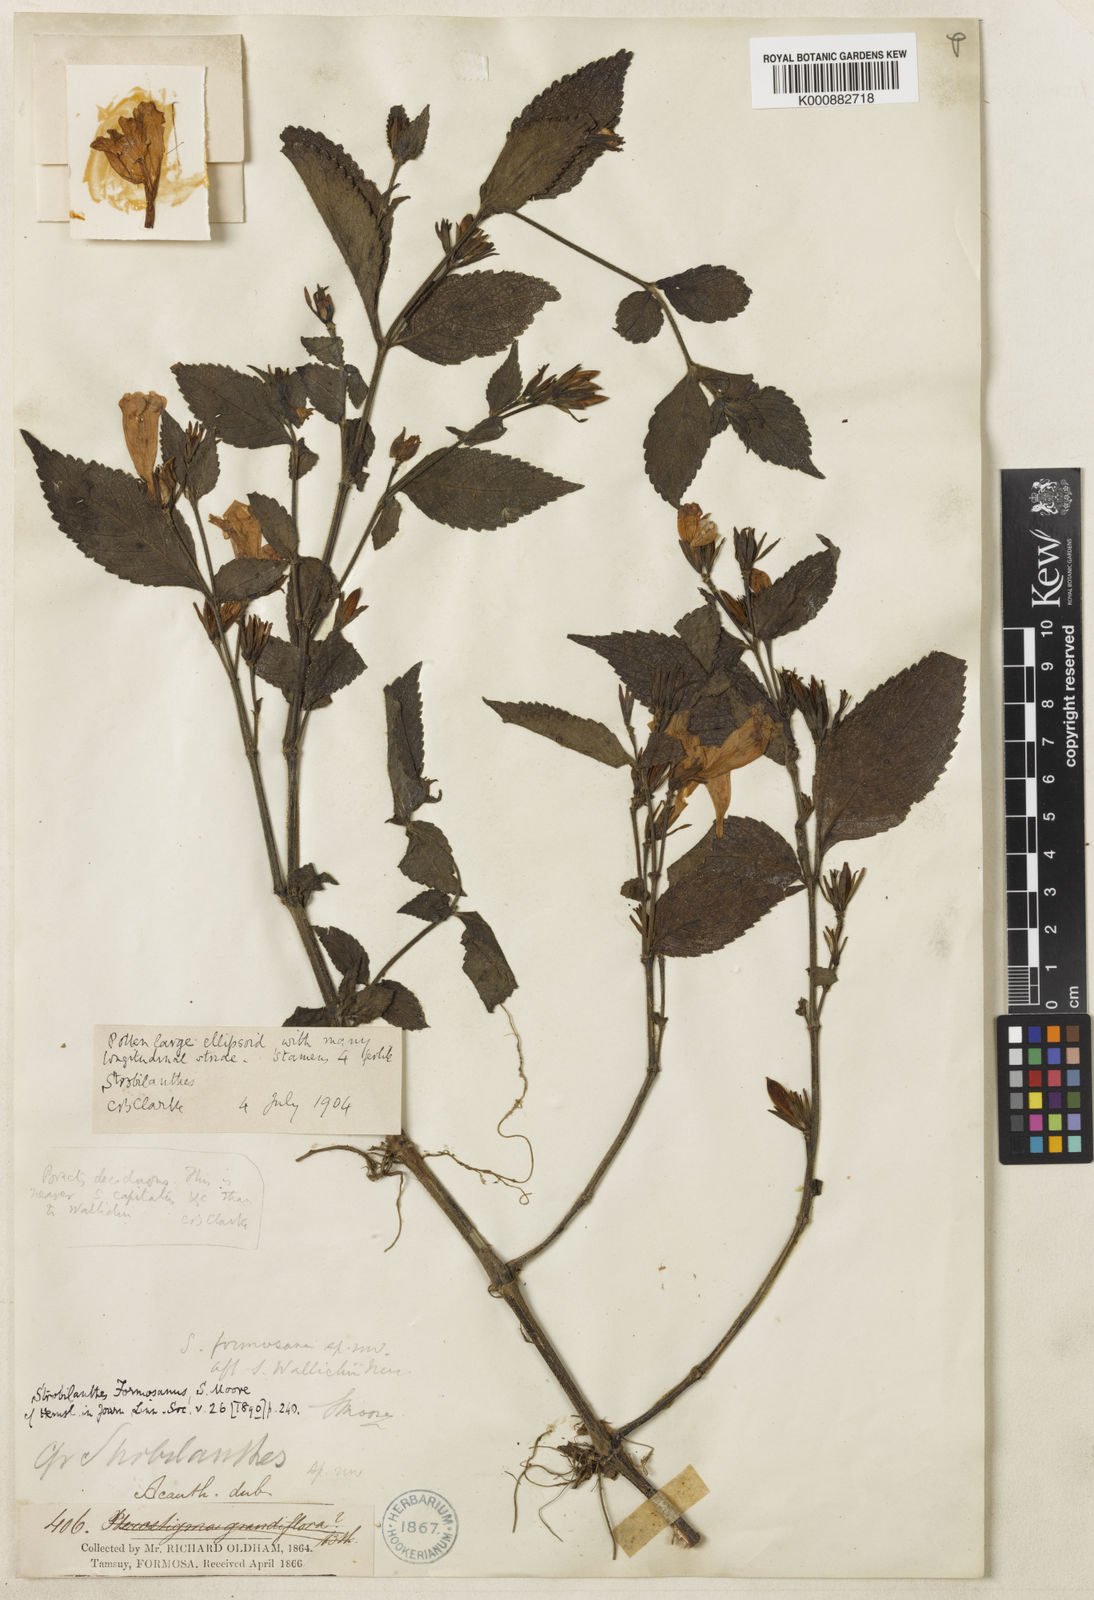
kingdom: Plantae
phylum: Tracheophyta
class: Magnoliopsida
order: Lamiales
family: Acanthaceae
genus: Strobilanthes
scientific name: Strobilanthes formosana
